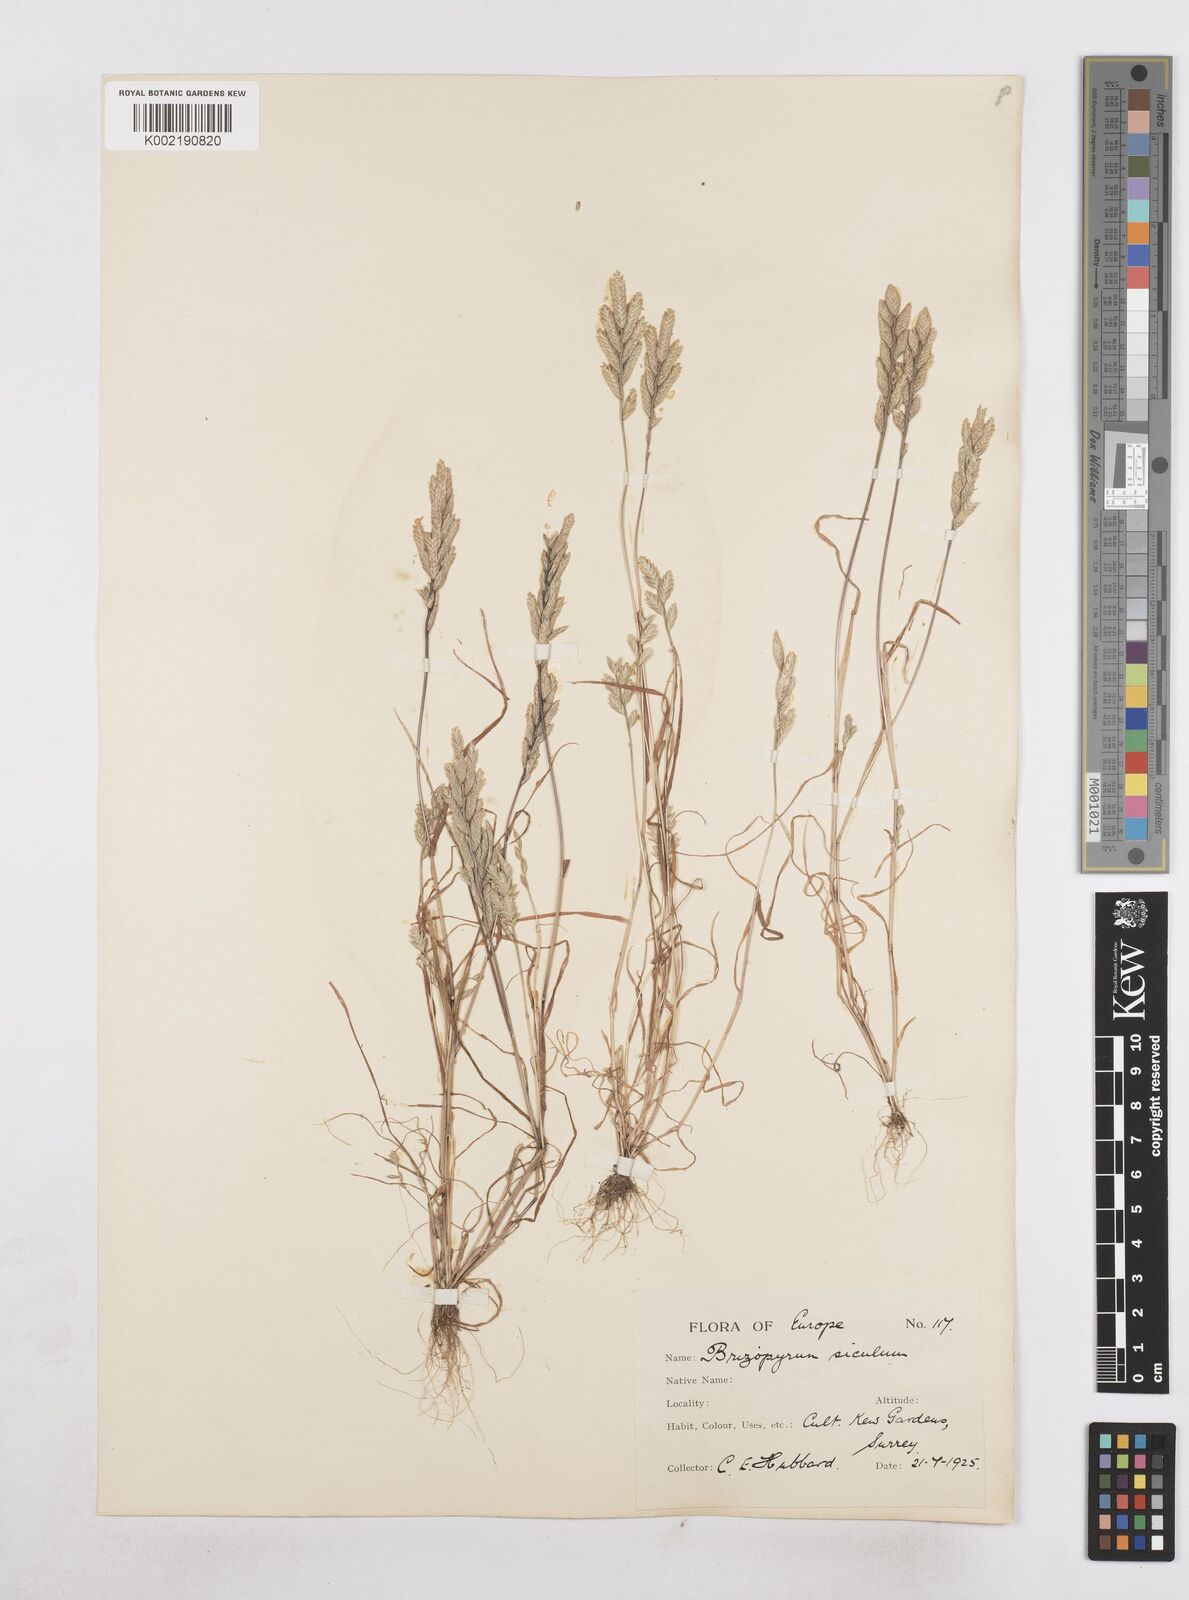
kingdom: Plantae
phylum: Tracheophyta
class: Liliopsida
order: Poales
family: Poaceae
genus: Desmazeria
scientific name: Desmazeria sicula
